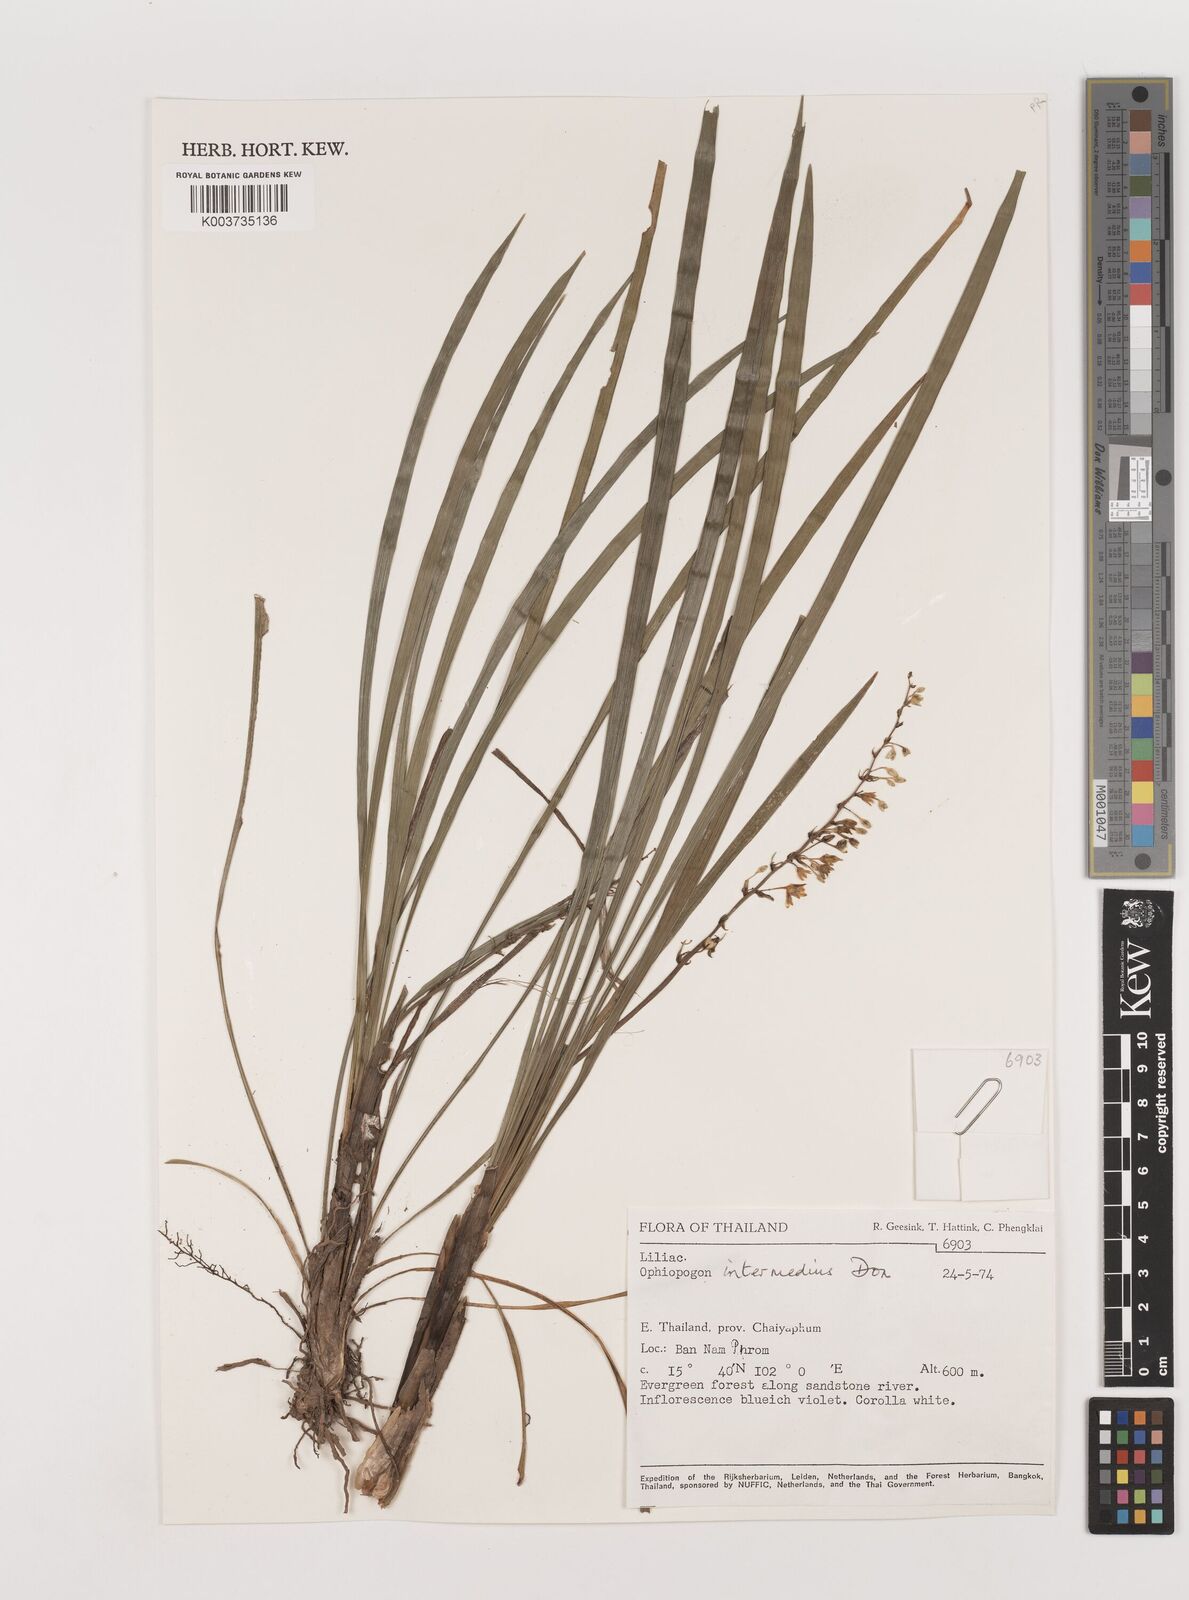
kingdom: Plantae
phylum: Tracheophyta
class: Liliopsida
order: Asparagales
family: Asparagaceae
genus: Ophiopogon
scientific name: Ophiopogon intermedius
